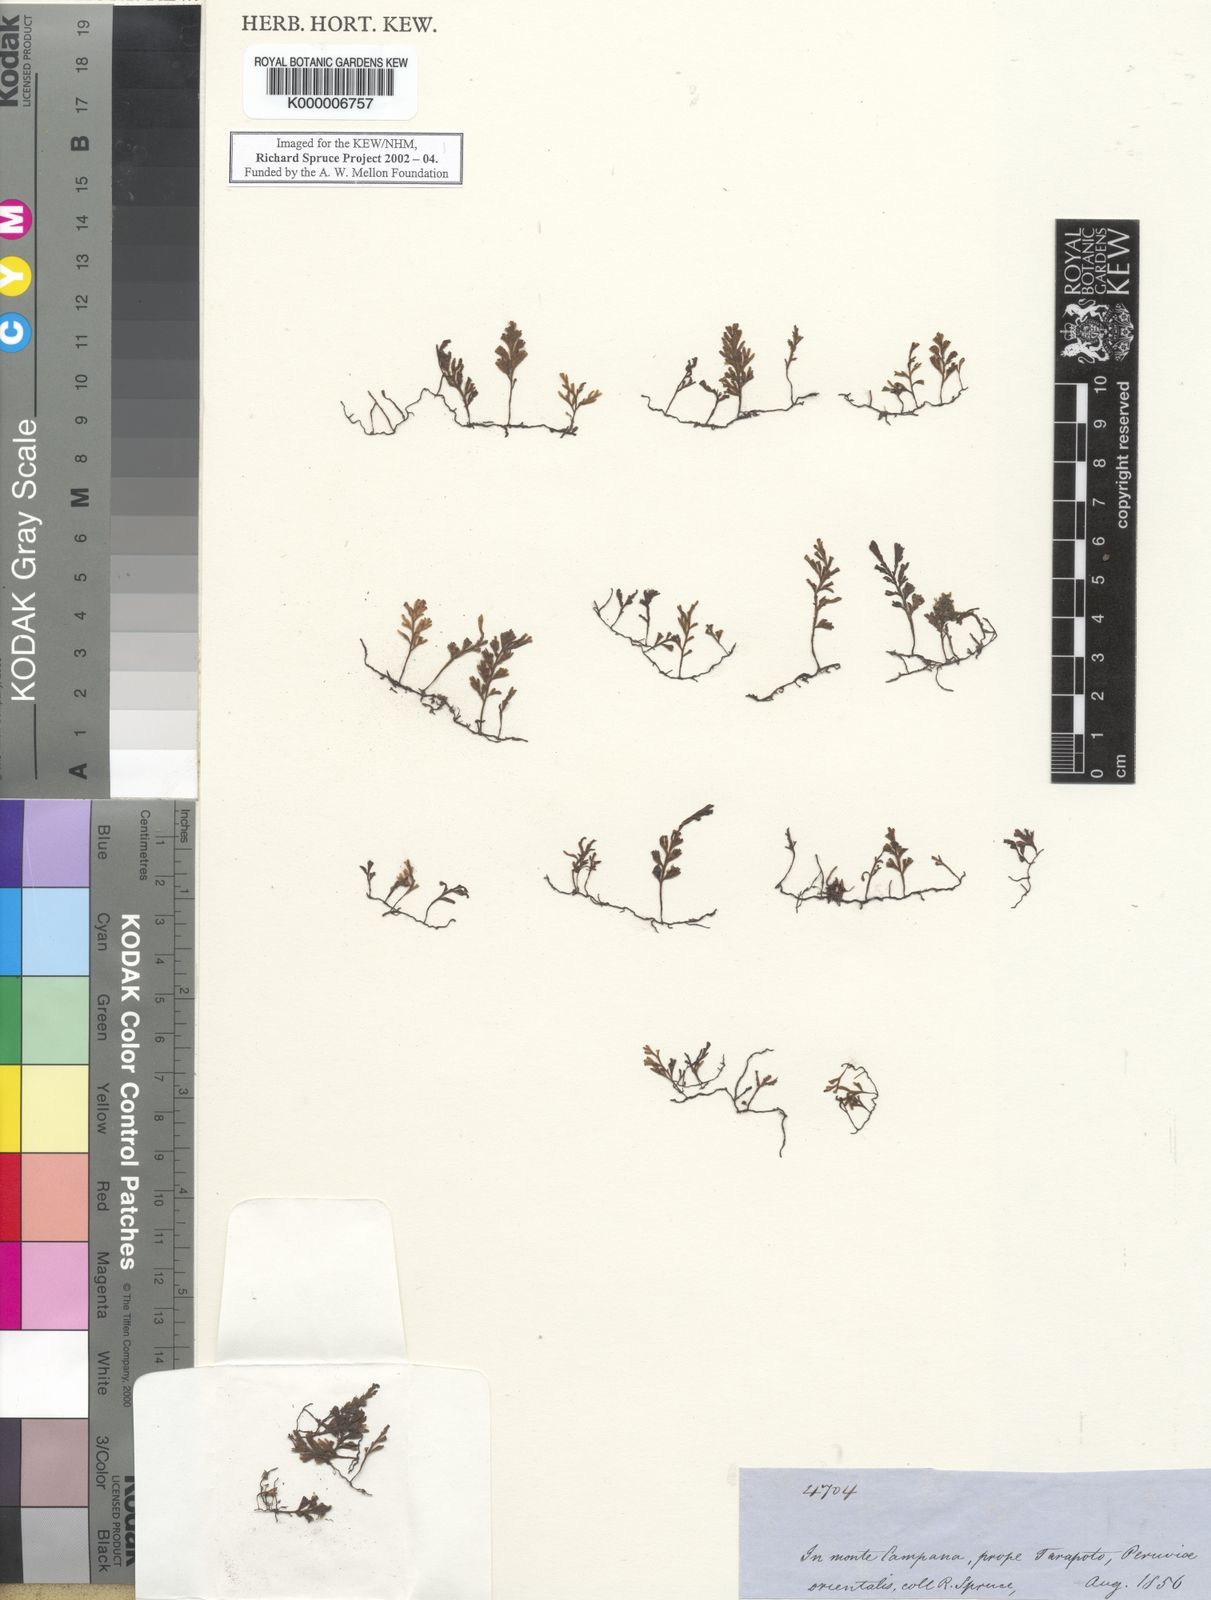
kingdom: Plantae
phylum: Tracheophyta
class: Polypodiopsida
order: Hymenophyllales
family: Hymenophyllaceae
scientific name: Hymenophyllaceae
